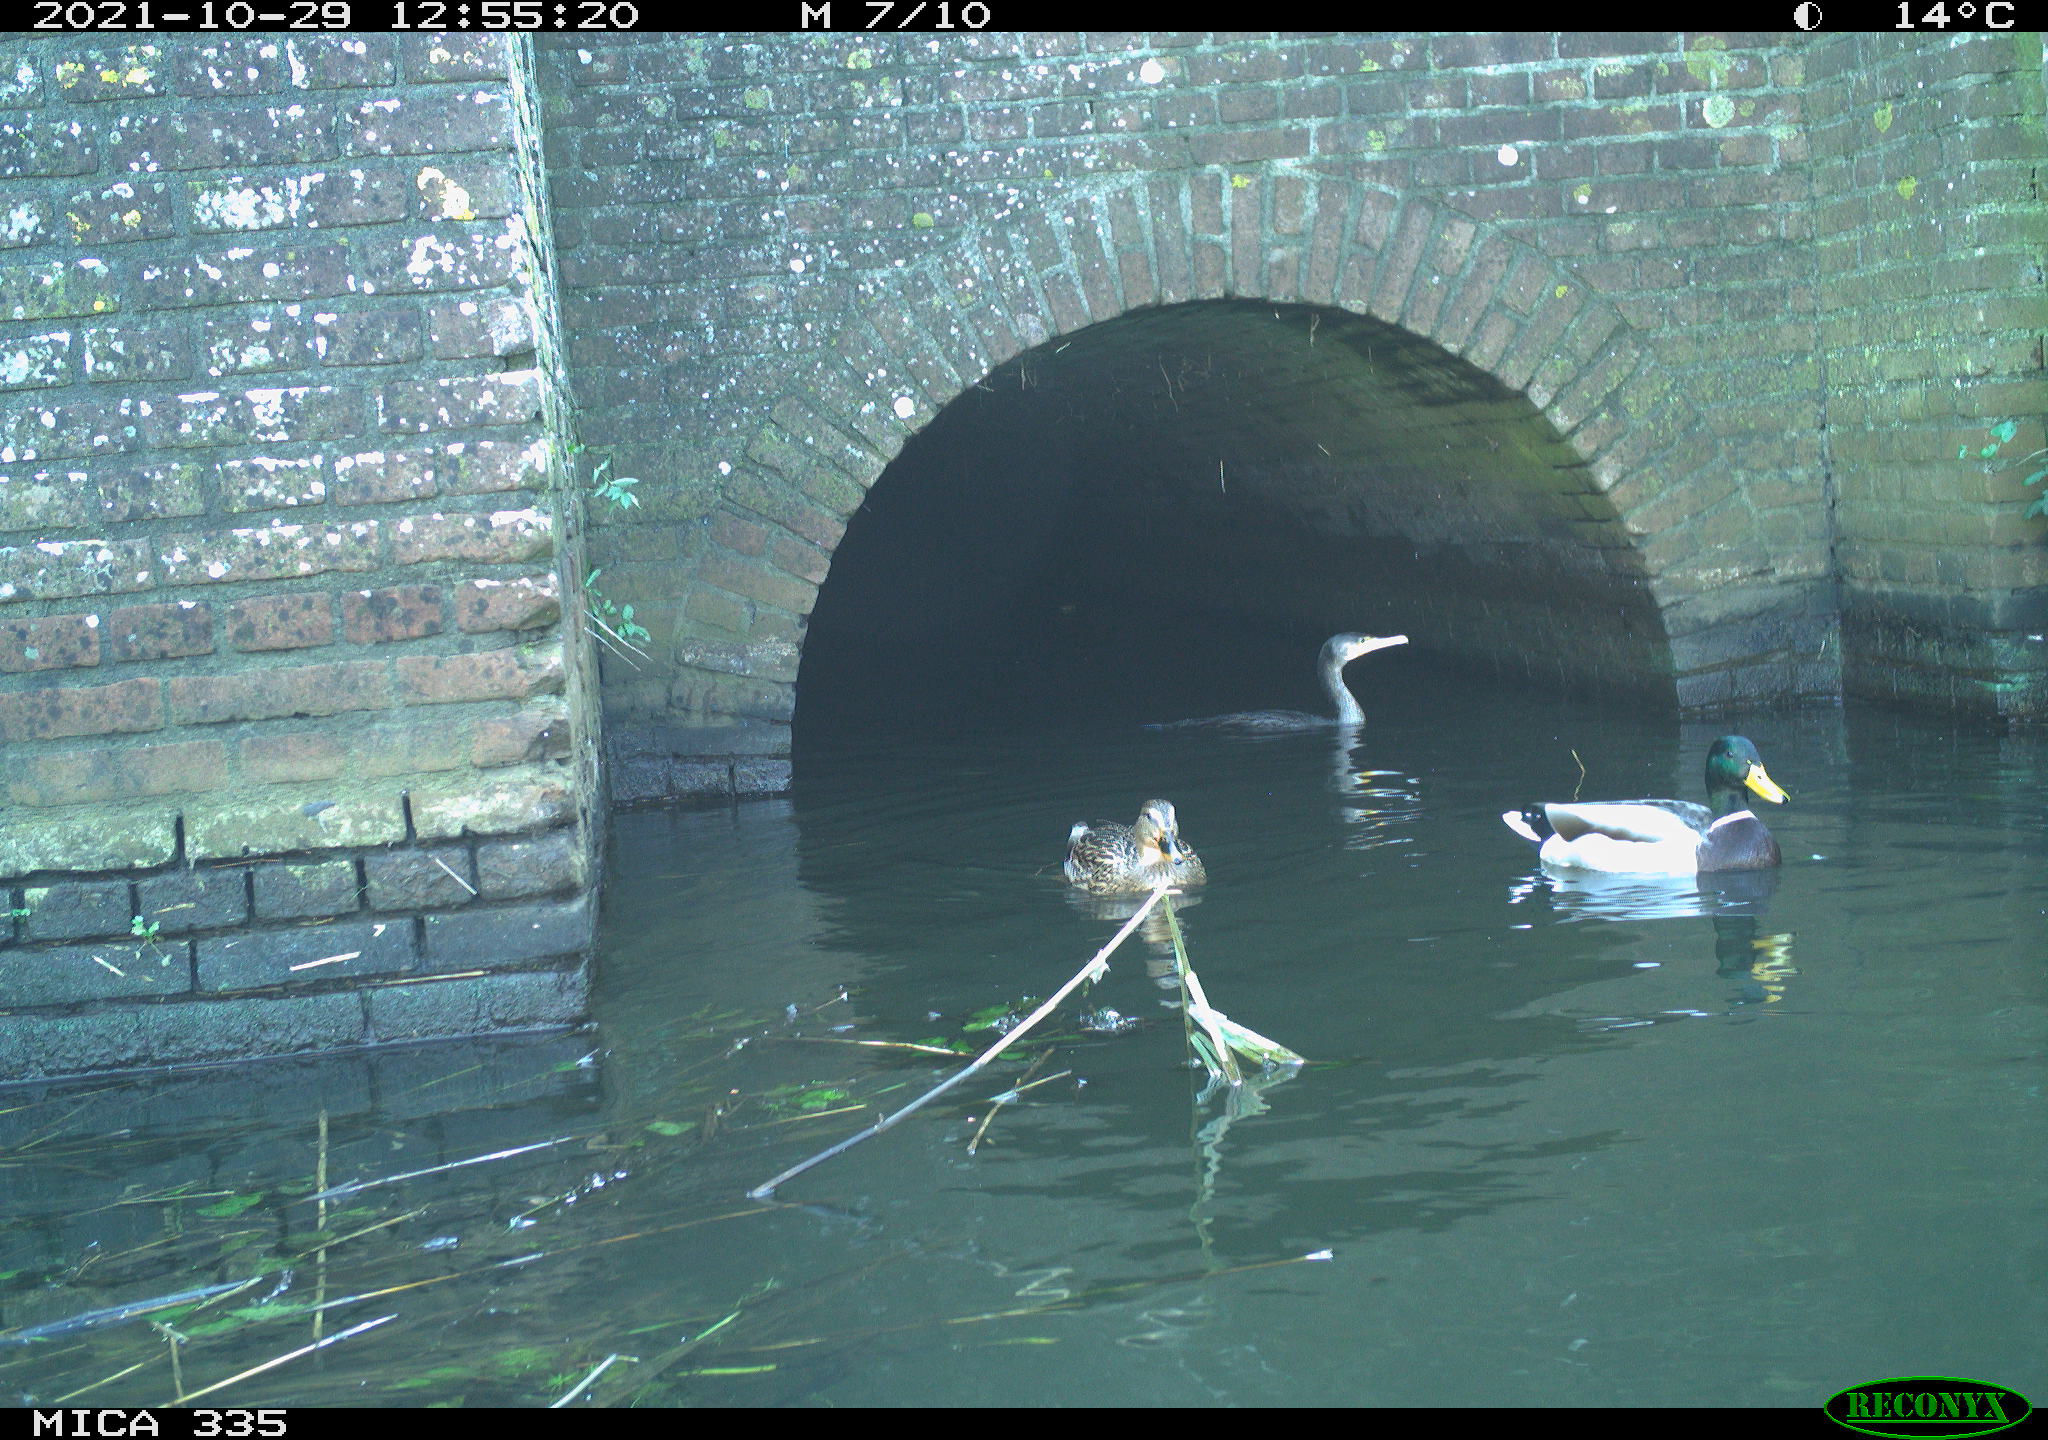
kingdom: Animalia
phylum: Chordata
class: Aves
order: Suliformes
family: Phalacrocoracidae
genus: Phalacrocorax
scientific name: Phalacrocorax carbo
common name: Great cormorant
